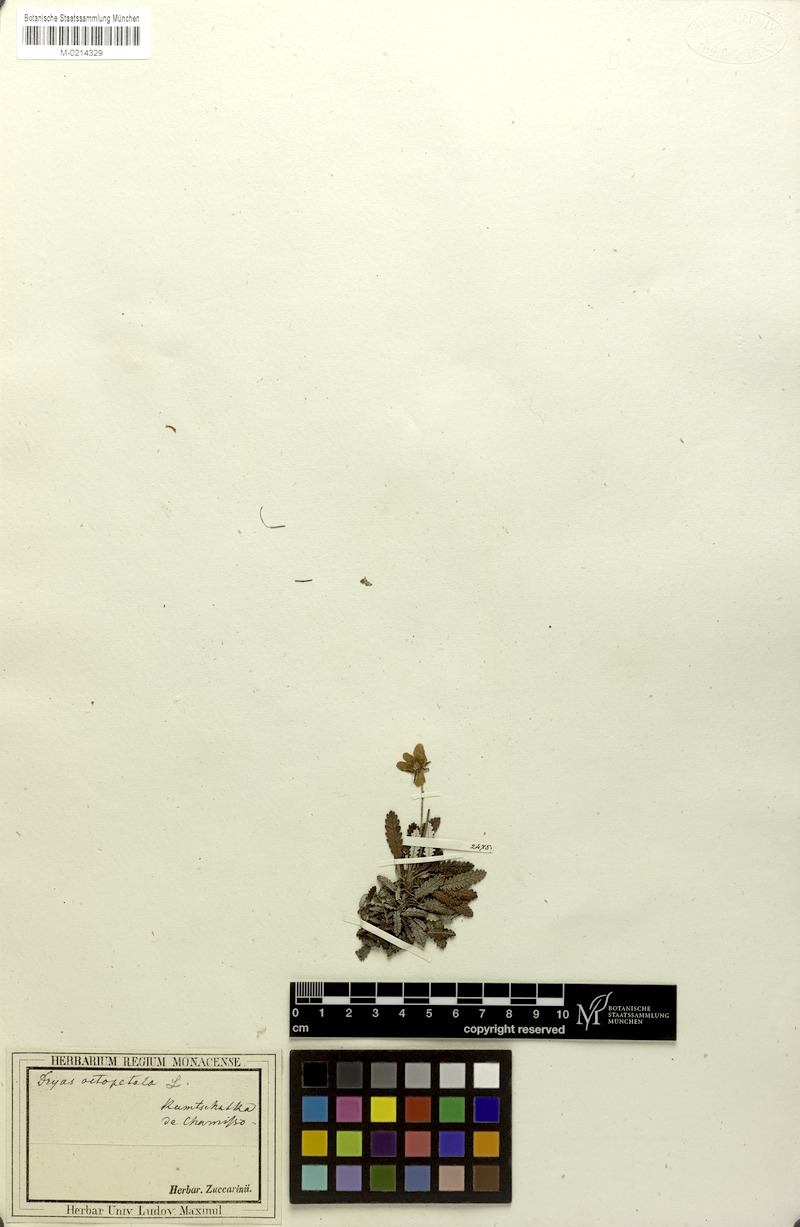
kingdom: Plantae
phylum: Tracheophyta
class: Magnoliopsida
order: Rosales
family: Rosaceae
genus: Dryas
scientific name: Dryas chamissonis
